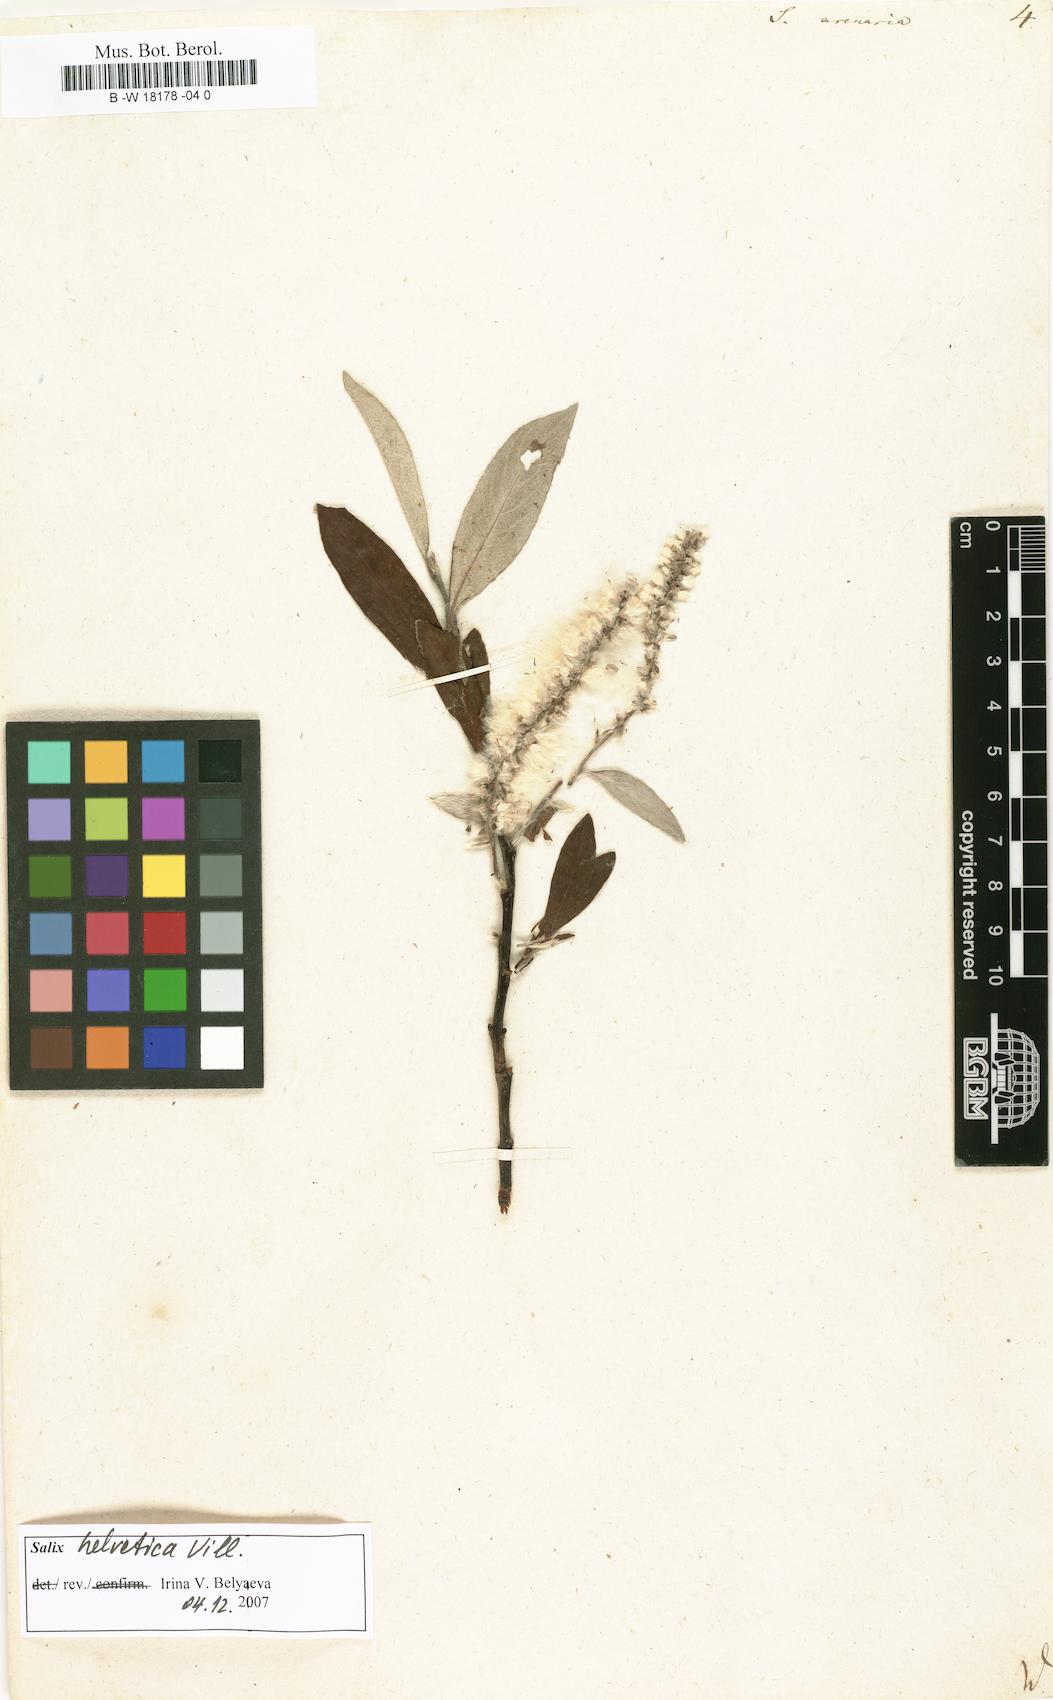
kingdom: Plantae
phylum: Tracheophyta
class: Magnoliopsida
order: Malpighiales
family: Salicaceae
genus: Salix
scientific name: Salix repens
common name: Creeping willow
